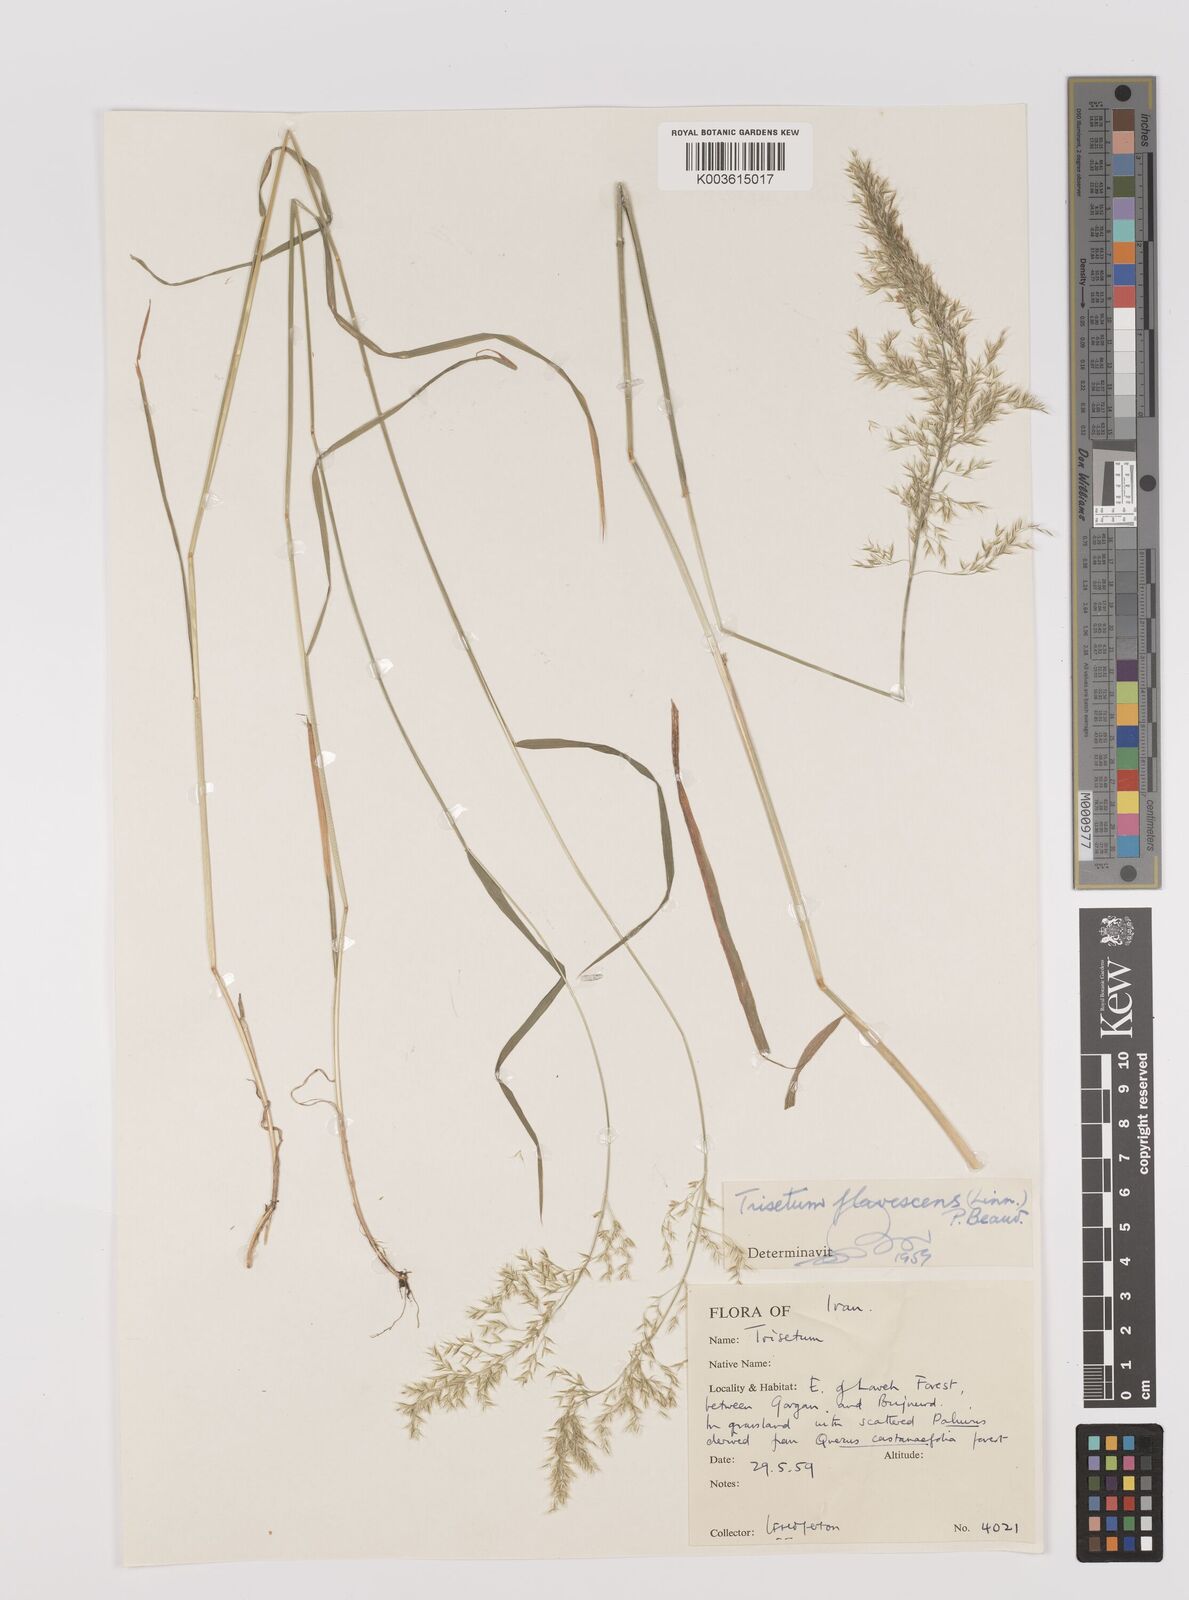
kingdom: Plantae
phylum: Tracheophyta
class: Liliopsida
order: Poales
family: Poaceae
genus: Trisetum
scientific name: Trisetum flavescens
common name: Yellow oat-grass
